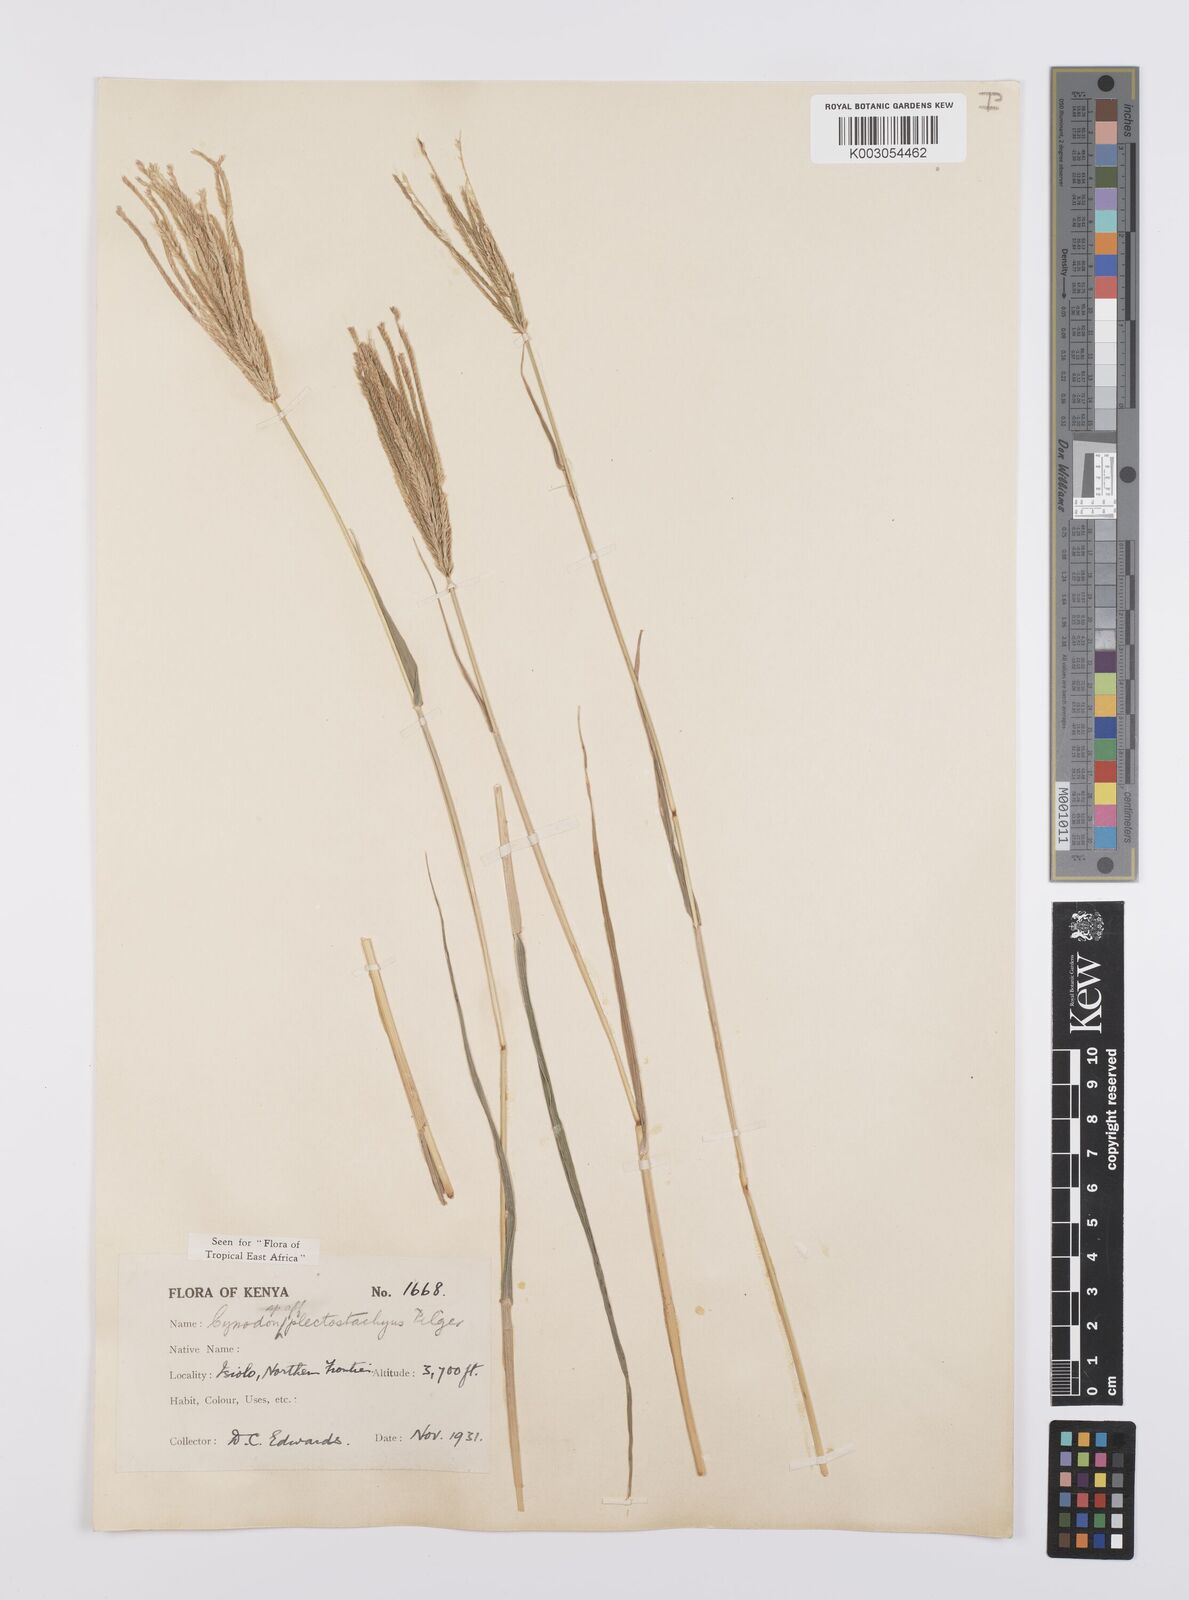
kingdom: Plantae
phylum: Tracheophyta
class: Liliopsida
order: Poales
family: Poaceae
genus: Cynodon
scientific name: Cynodon plectostachyus
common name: Stargrass
